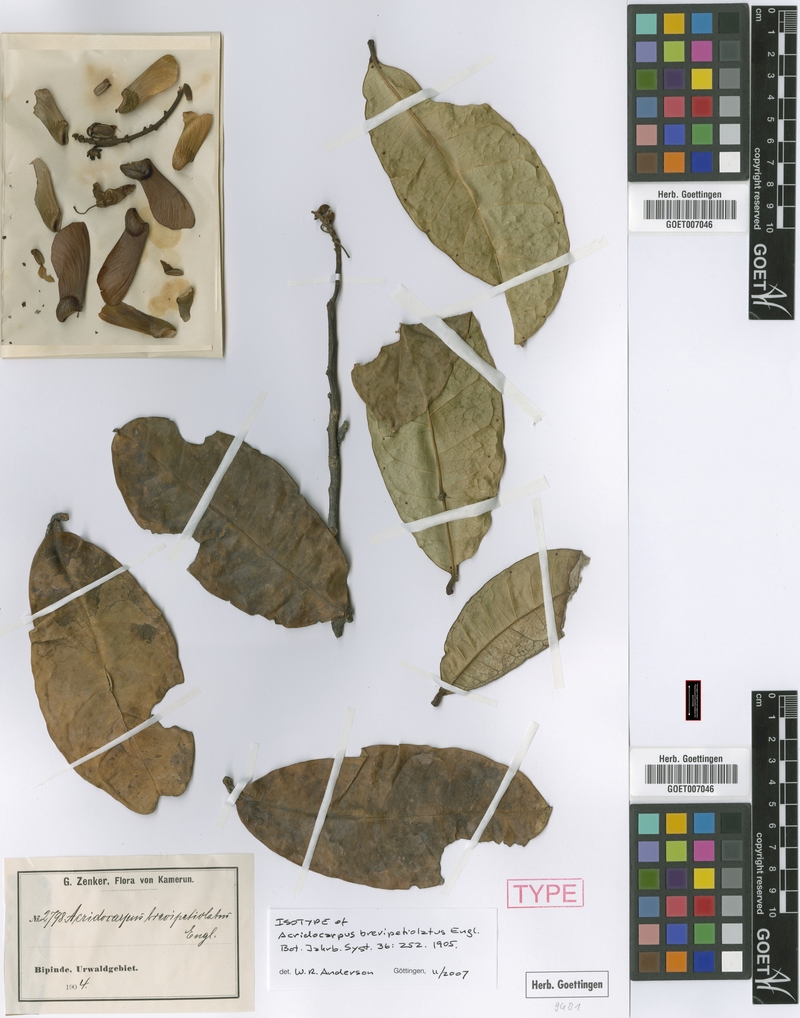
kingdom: Plantae
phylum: Tracheophyta
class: Magnoliopsida
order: Malpighiales
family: Malpighiaceae
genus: Acridocarpus
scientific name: Acridocarpus longifolius
